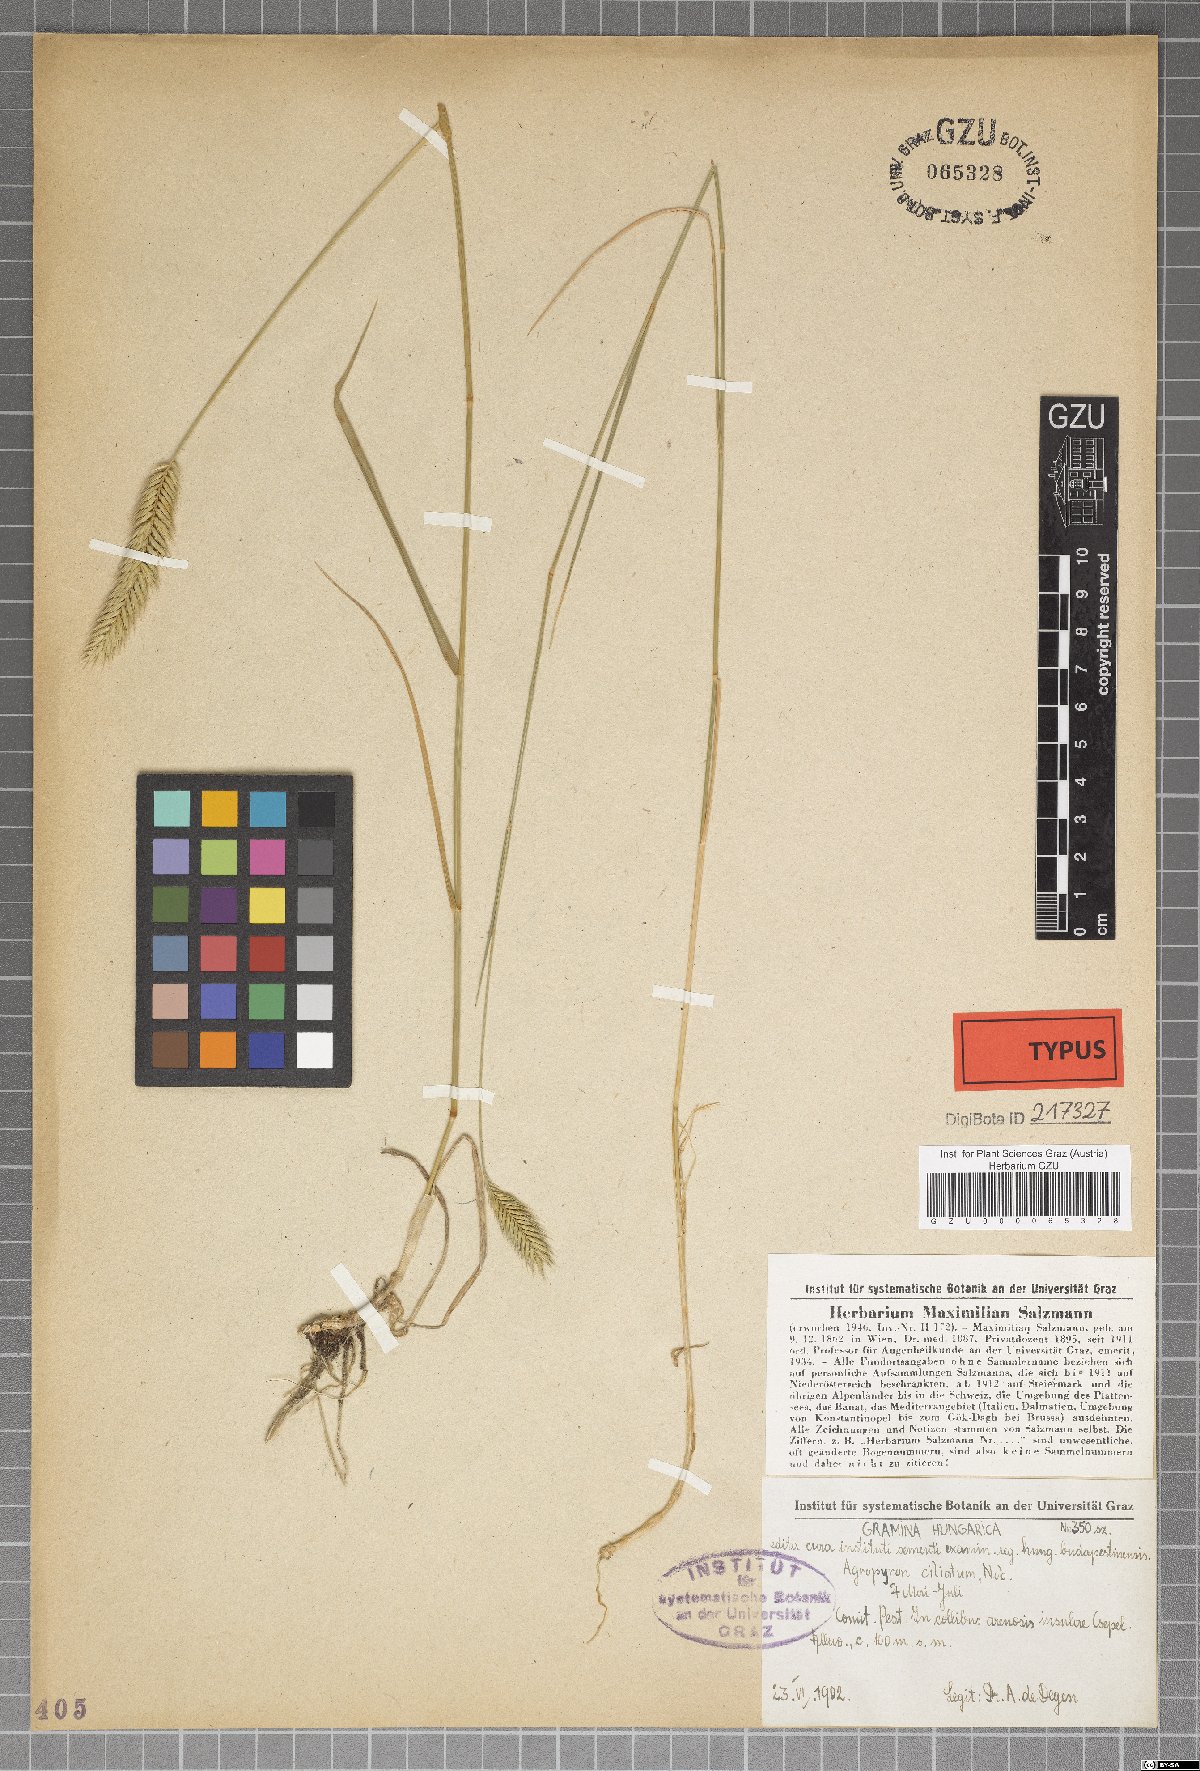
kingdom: Plantae
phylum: Tracheophyta
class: Liliopsida
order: Poales
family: Poaceae
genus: Elymus
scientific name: Elymus lolioides
